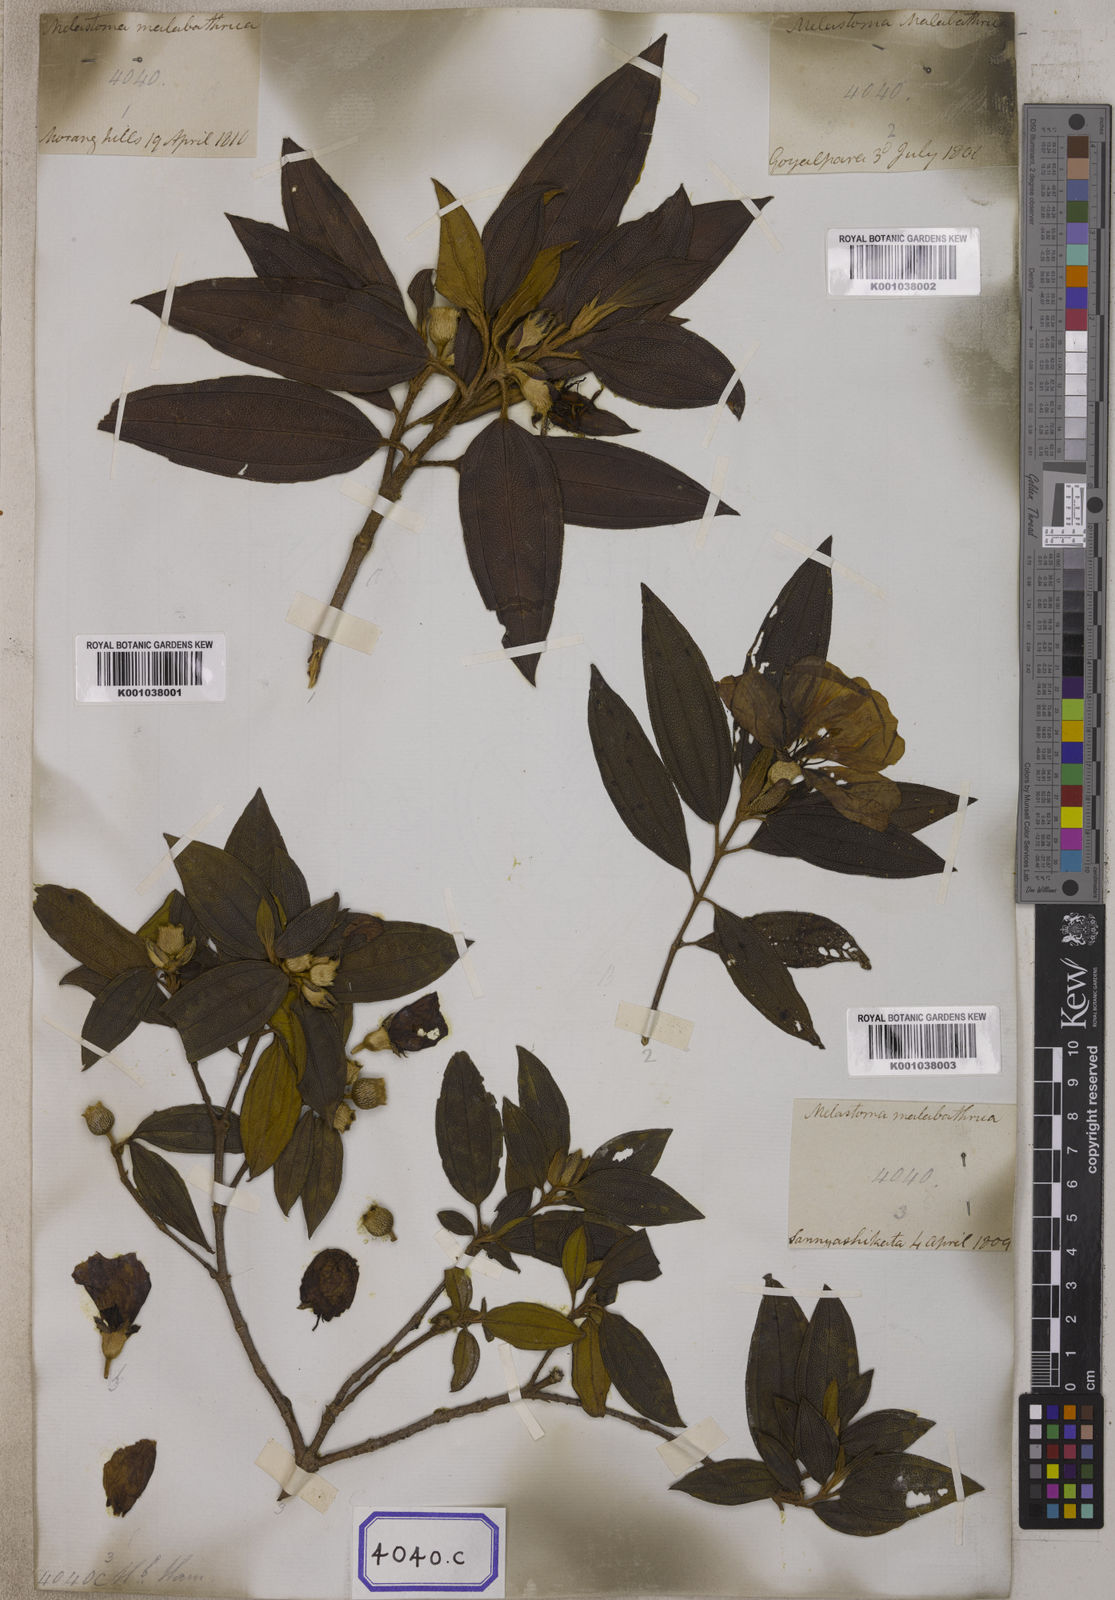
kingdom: Plantae
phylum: Tracheophyta
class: Magnoliopsida
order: Myrtales
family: Melastomataceae
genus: Melastoma
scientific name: Melastoma malabathricum
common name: Indian-rhododendron
